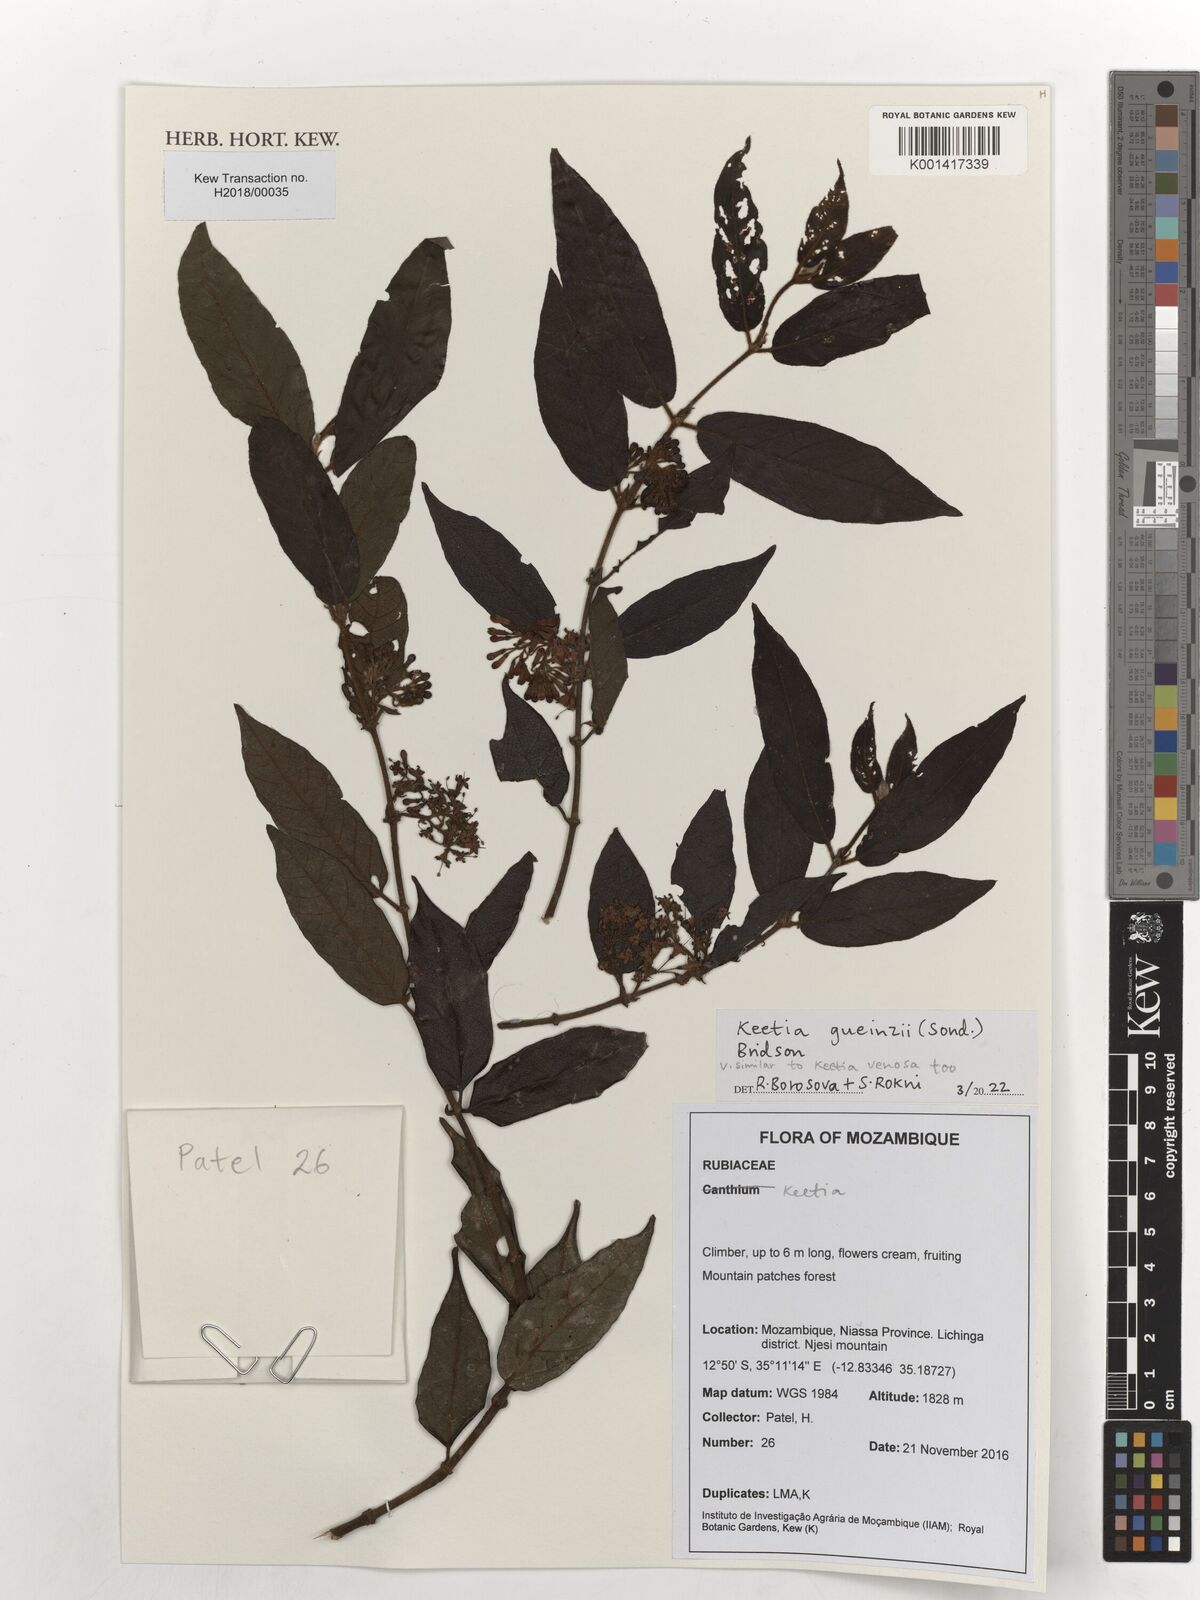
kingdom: Plantae
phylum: Tracheophyta
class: Magnoliopsida
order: Gentianales
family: Rubiaceae
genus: Keetia
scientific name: Keetia gueinzii
